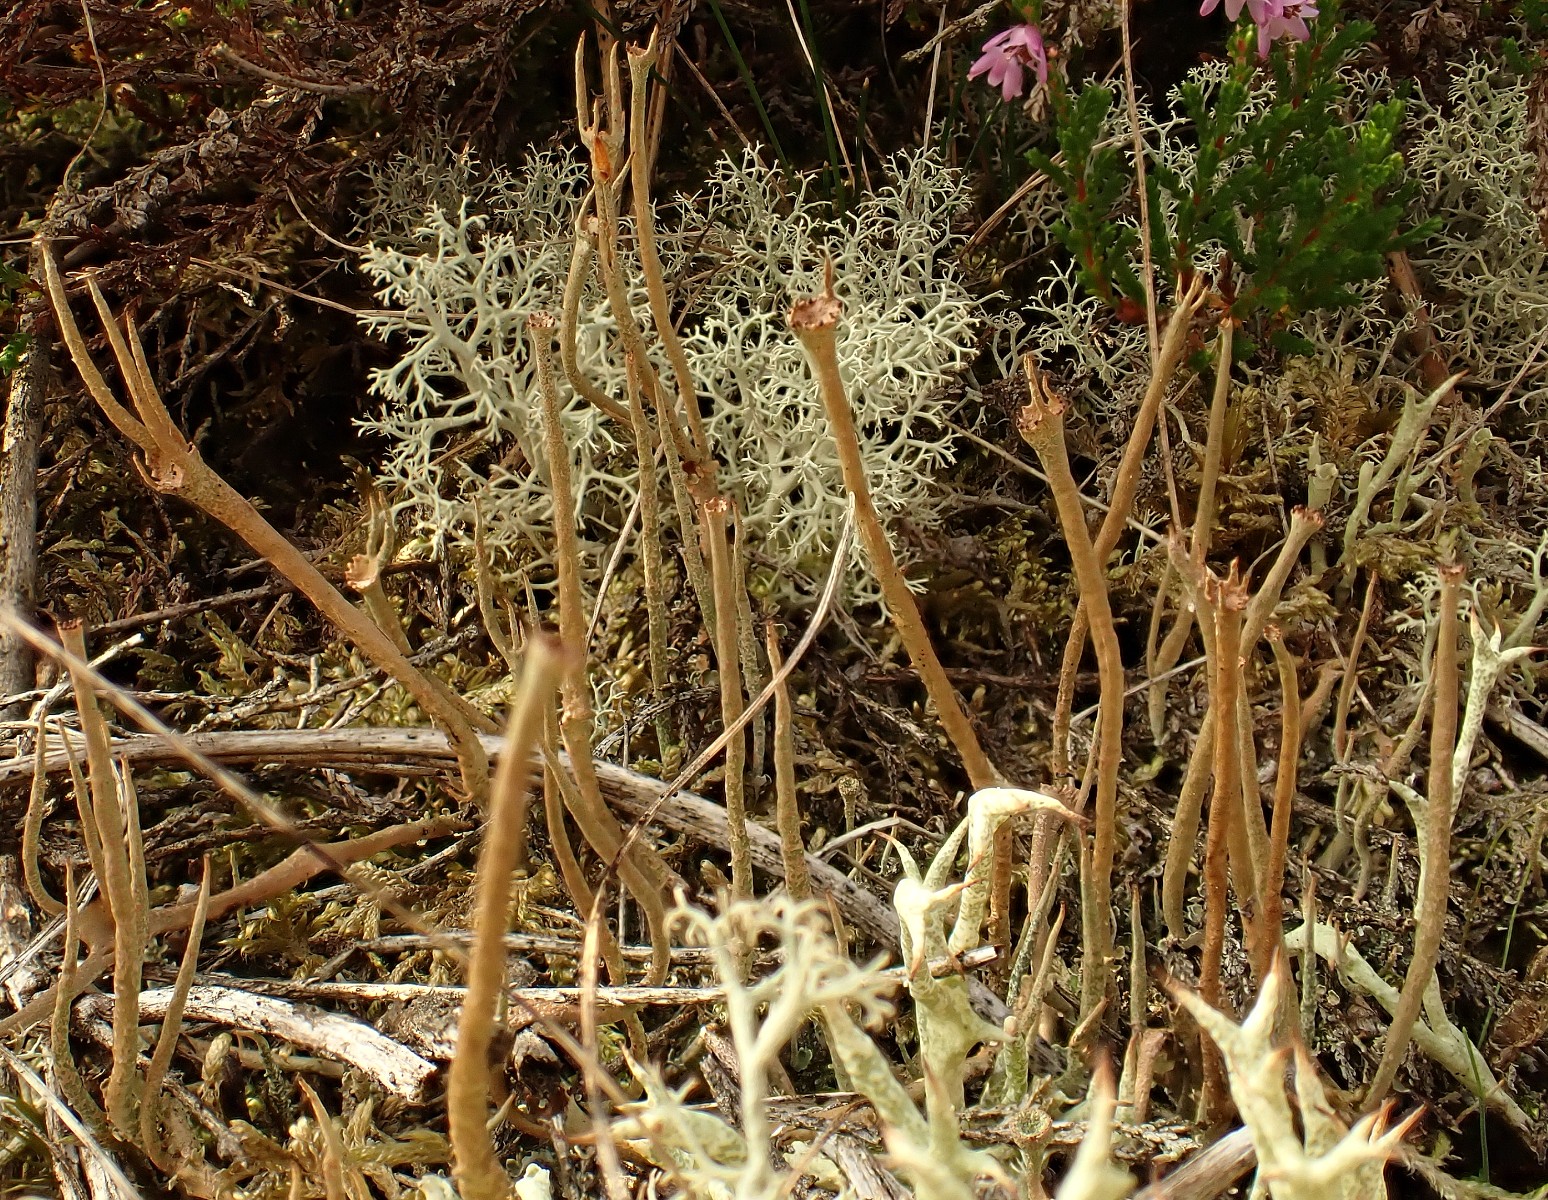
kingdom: Fungi
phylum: Ascomycota
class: Lecanoromycetes
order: Lecanorales
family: Cladoniaceae
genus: Cladonia
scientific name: Cladonia gracilis
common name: slank bægerlav
